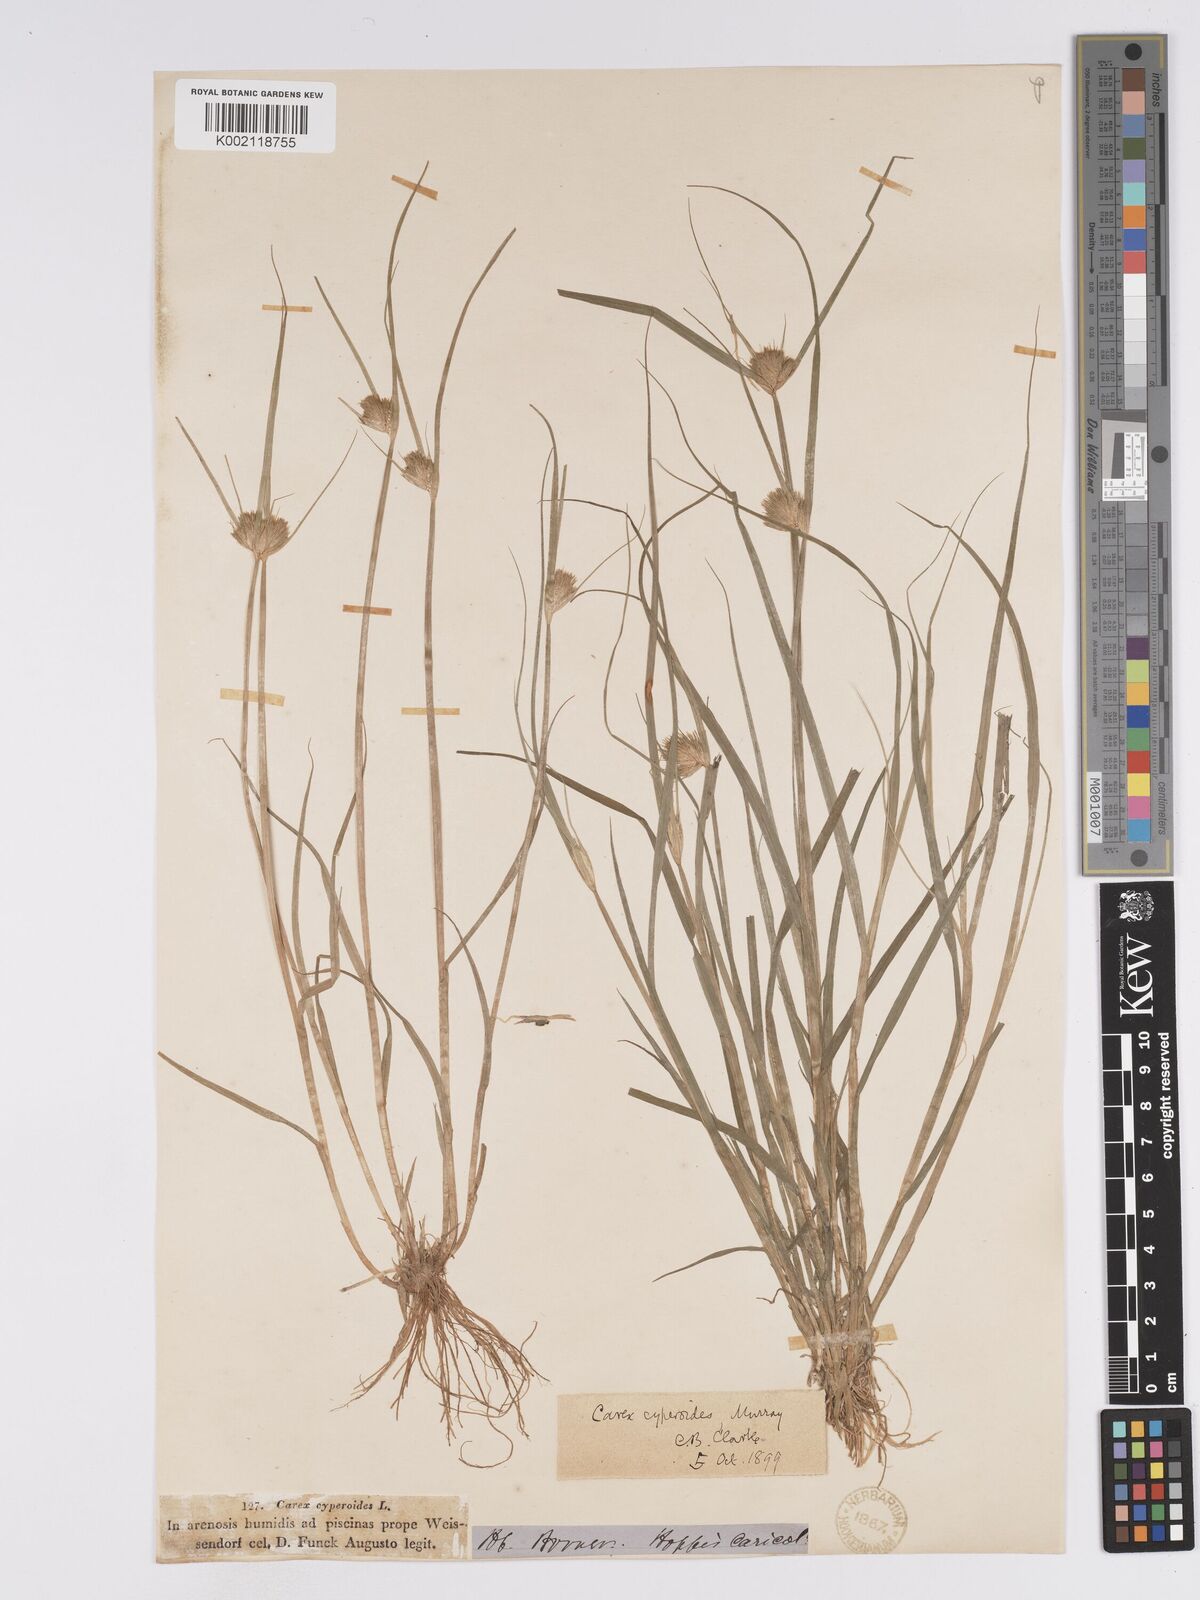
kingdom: Plantae
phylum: Tracheophyta
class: Liliopsida
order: Poales
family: Cyperaceae
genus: Carex
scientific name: Carex bohemica
